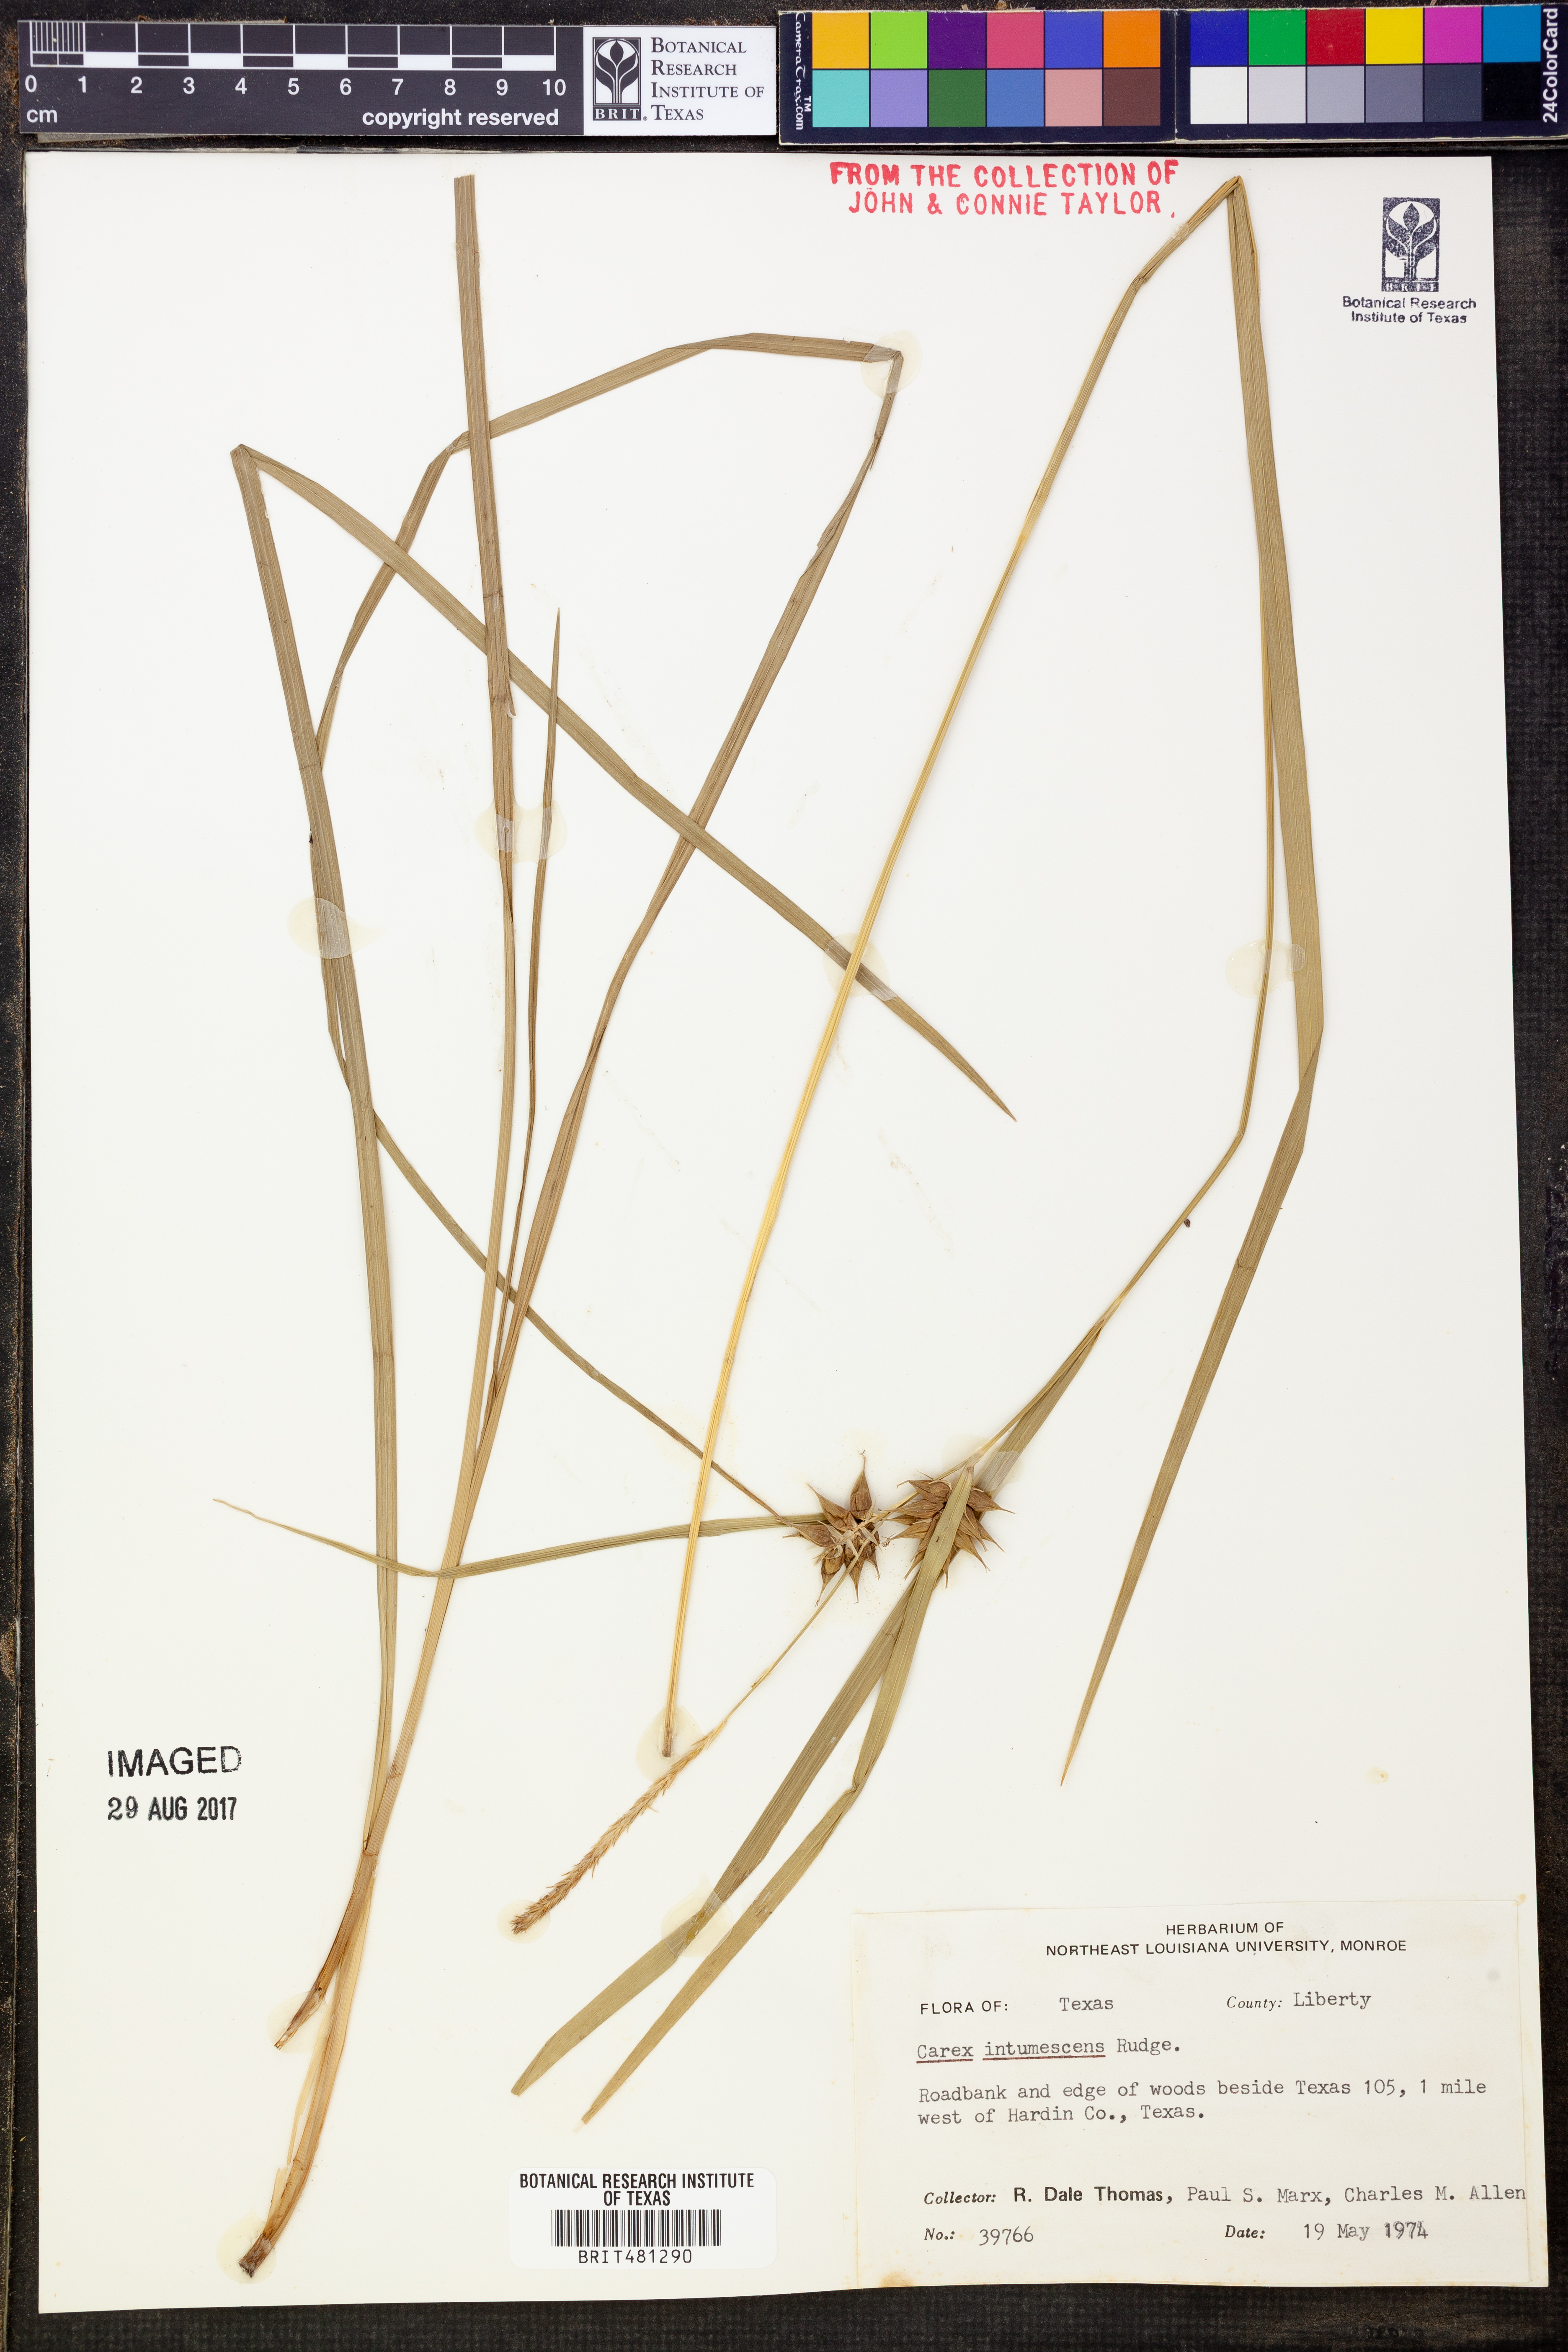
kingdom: Plantae
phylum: Tracheophyta
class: Liliopsida
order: Poales
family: Cyperaceae
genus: Carex
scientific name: Carex intumescens
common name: Greater bladder sedge
